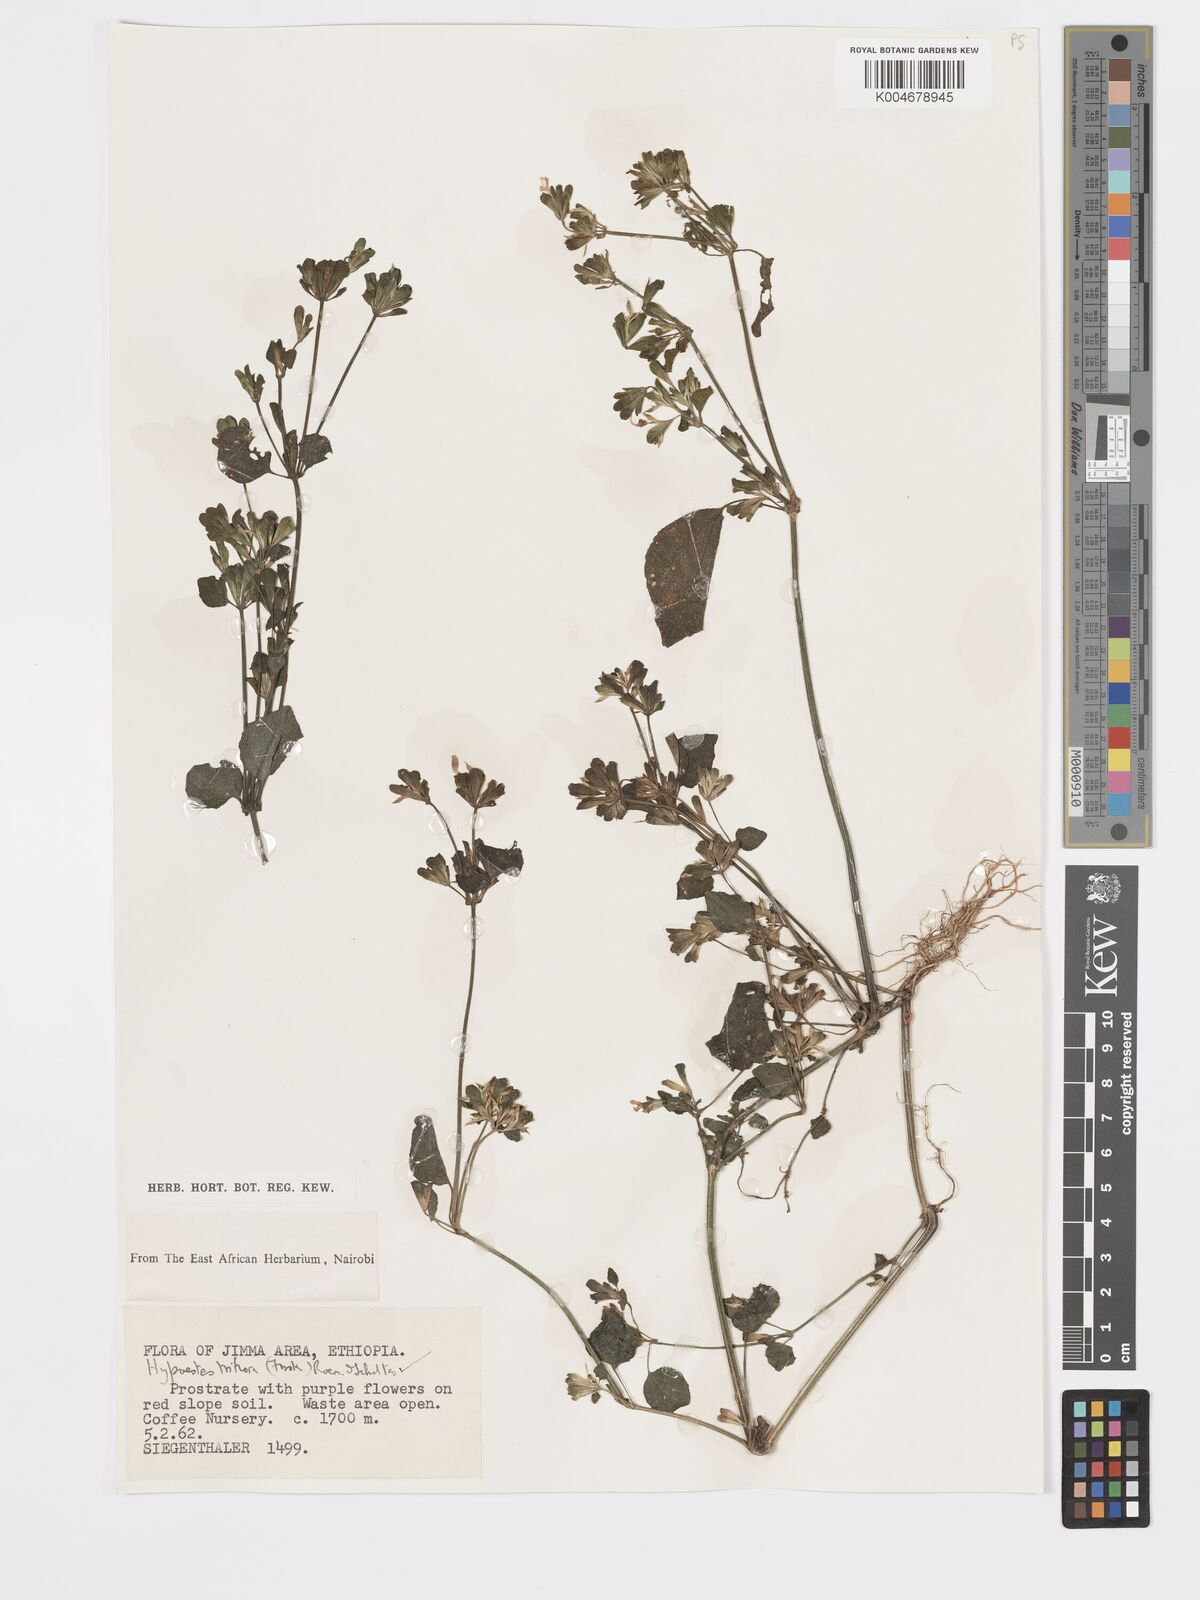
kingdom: Plantae
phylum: Tracheophyta
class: Magnoliopsida
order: Lamiales
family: Acanthaceae
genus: Hypoestes
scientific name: Hypoestes triflora
